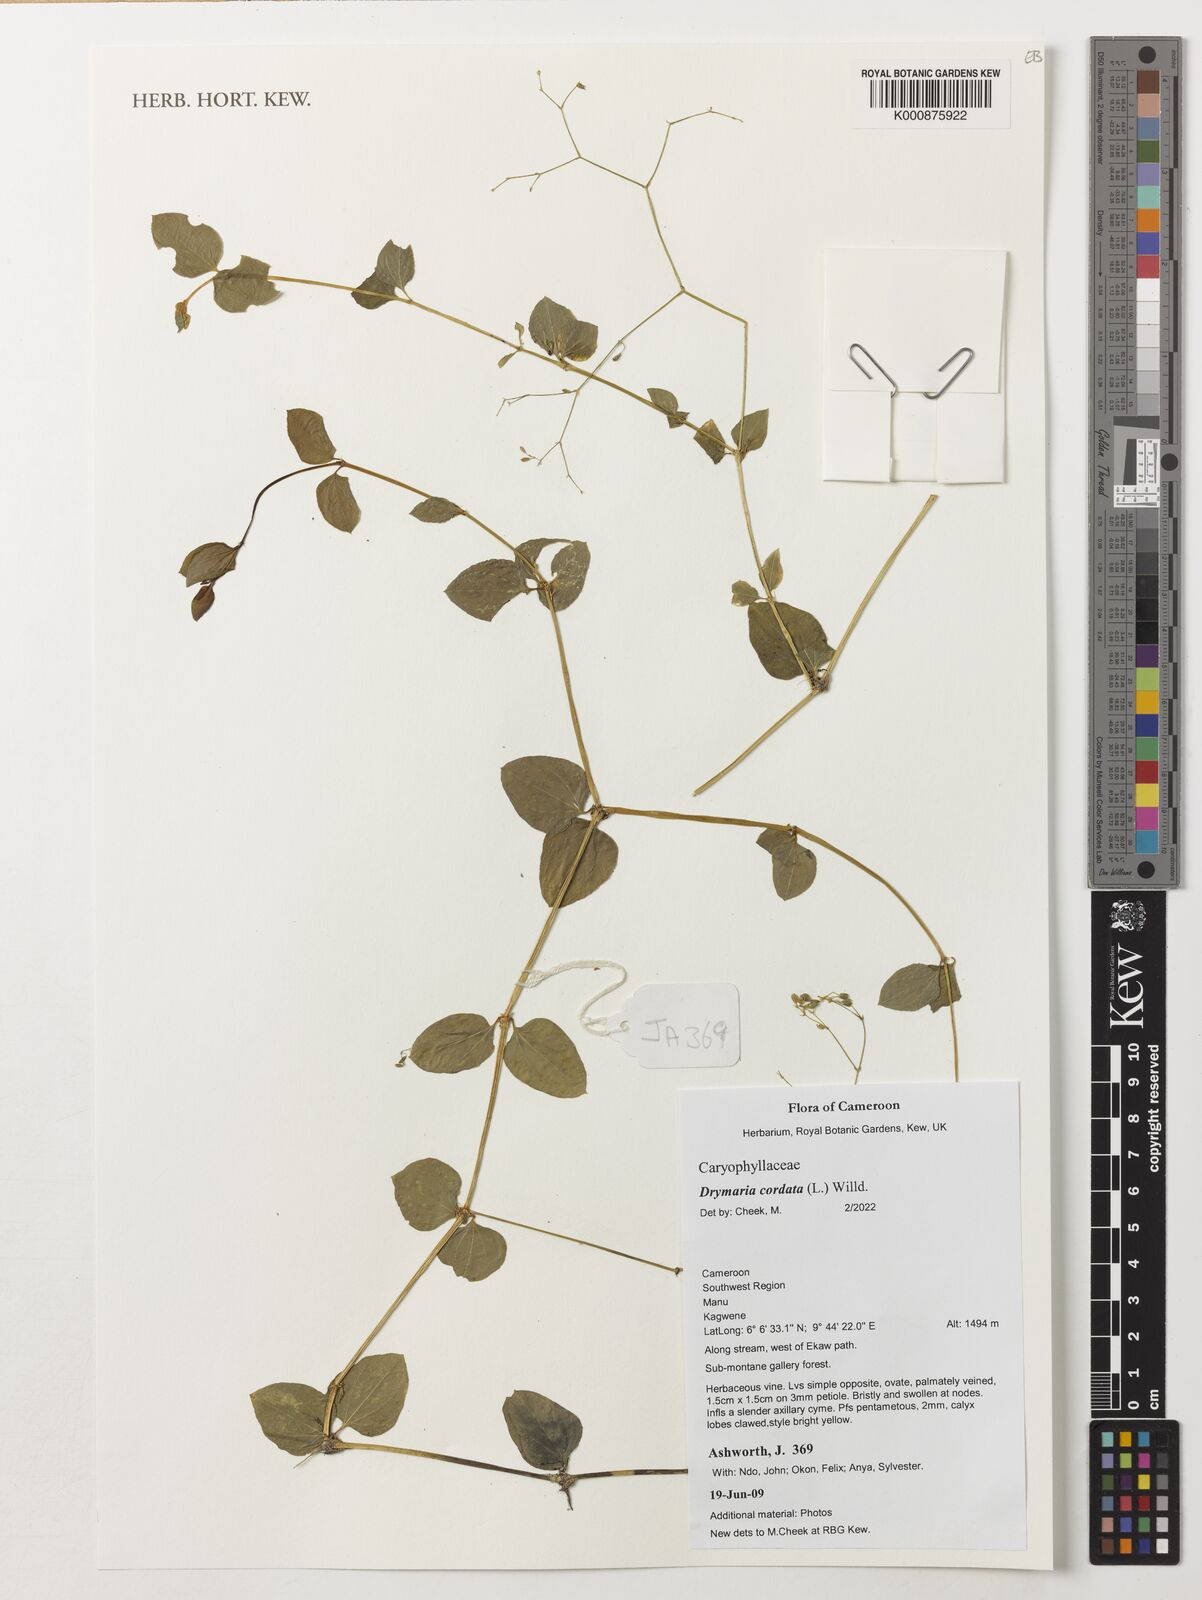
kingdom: Plantae
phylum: Tracheophyta
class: Magnoliopsida
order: Caryophyllales
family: Caryophyllaceae
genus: Drymaria
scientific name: Drymaria cordata
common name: Whitesnow
